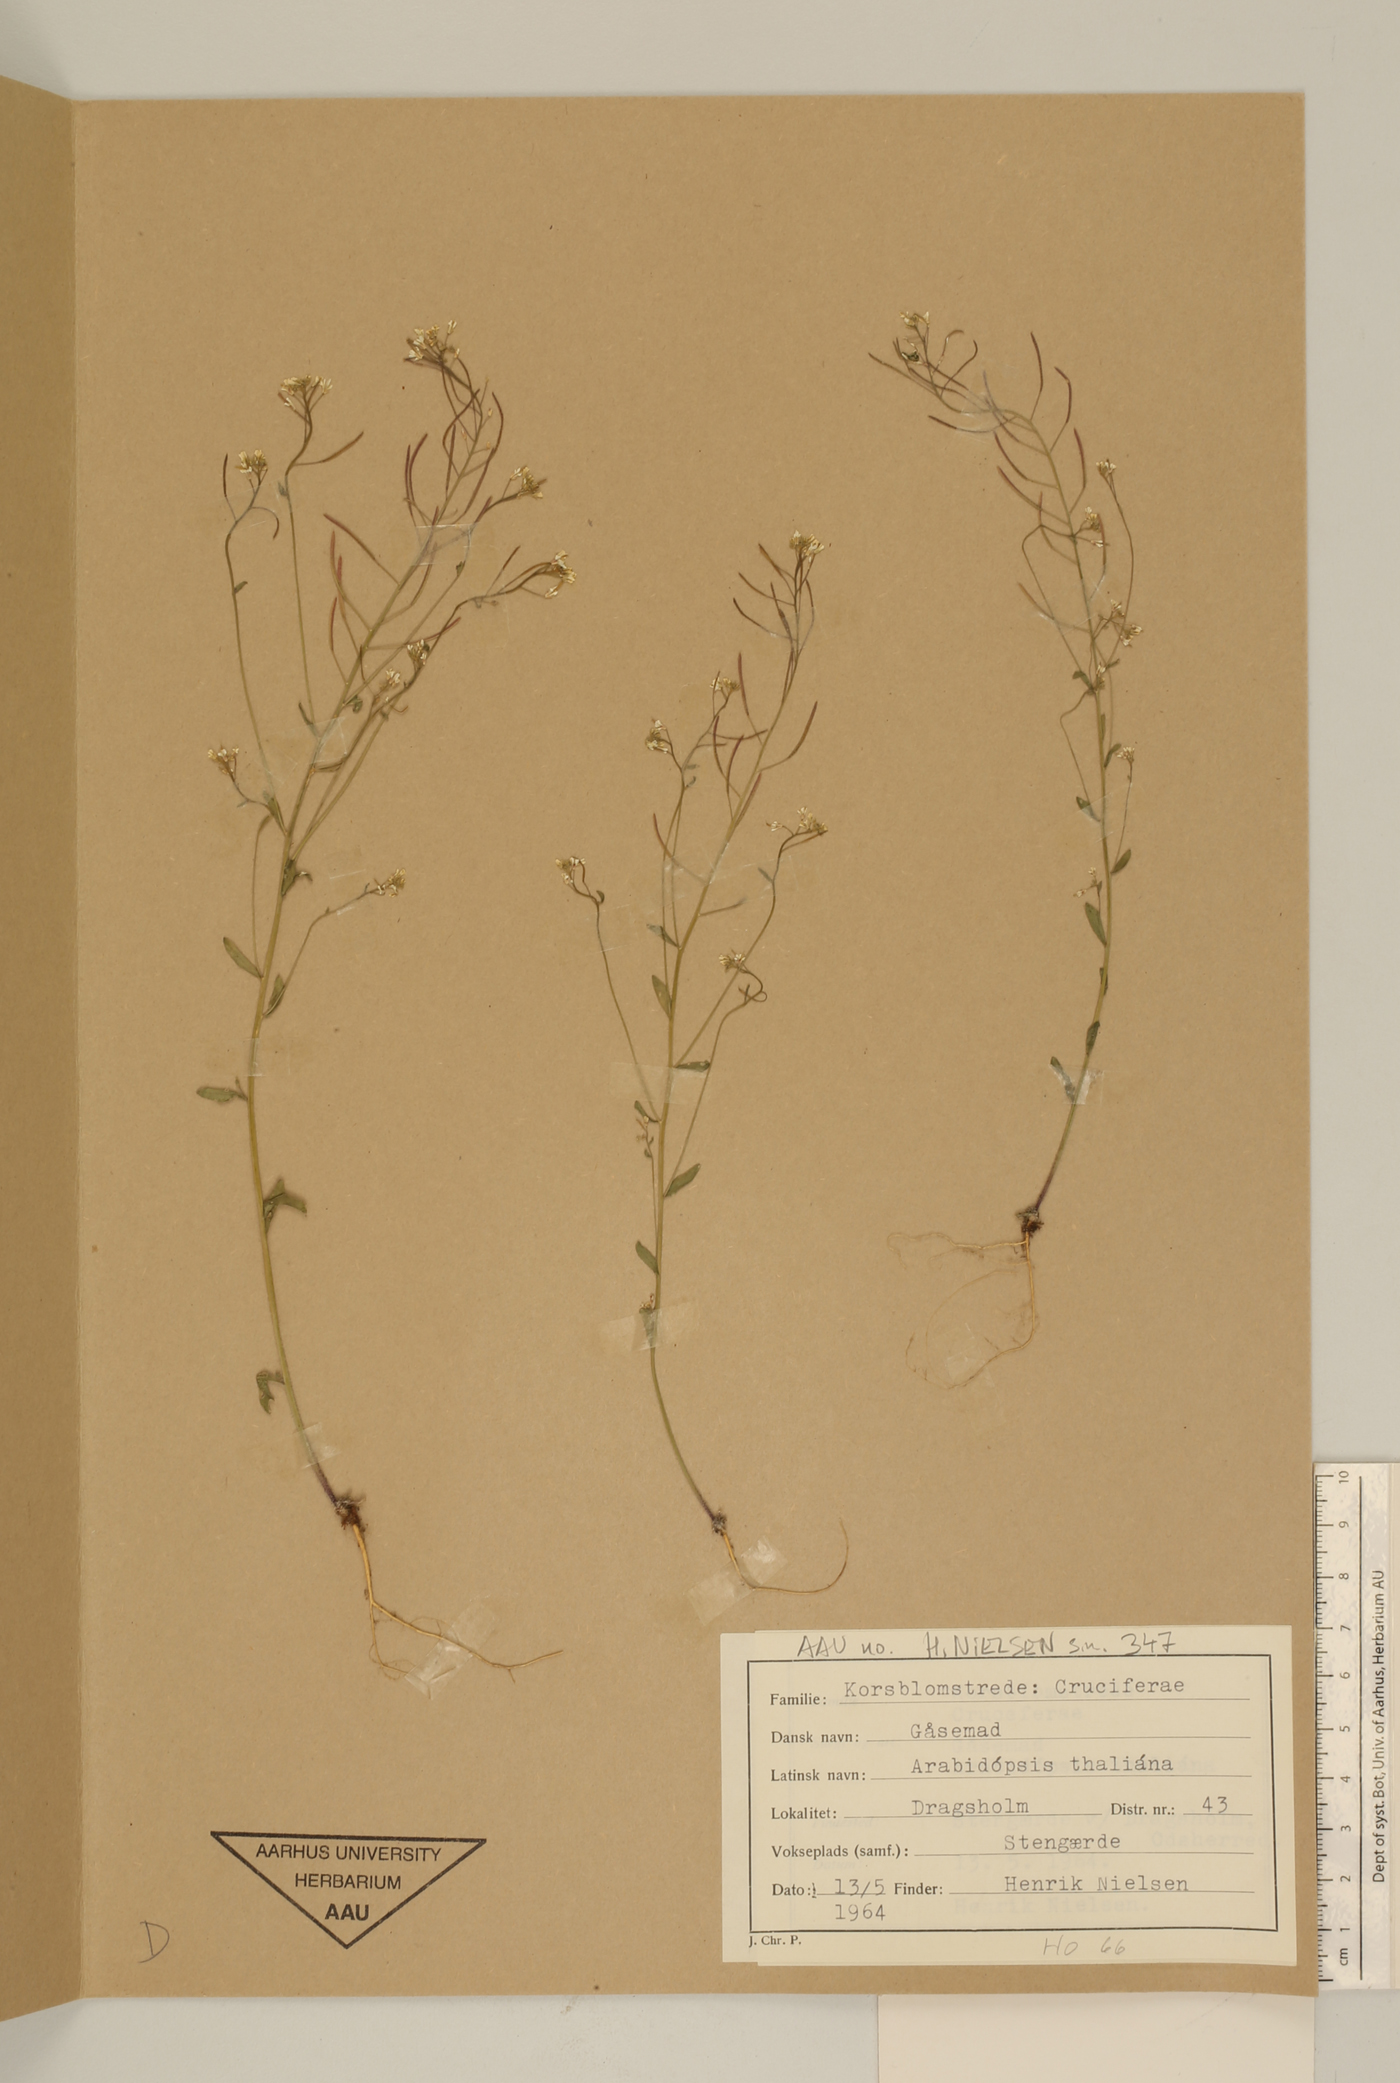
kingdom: Plantae
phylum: Tracheophyta
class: Magnoliopsida
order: Brassicales
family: Brassicaceae
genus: Arabidopsis
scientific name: Arabidopsis thaliana
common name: Thale cress
